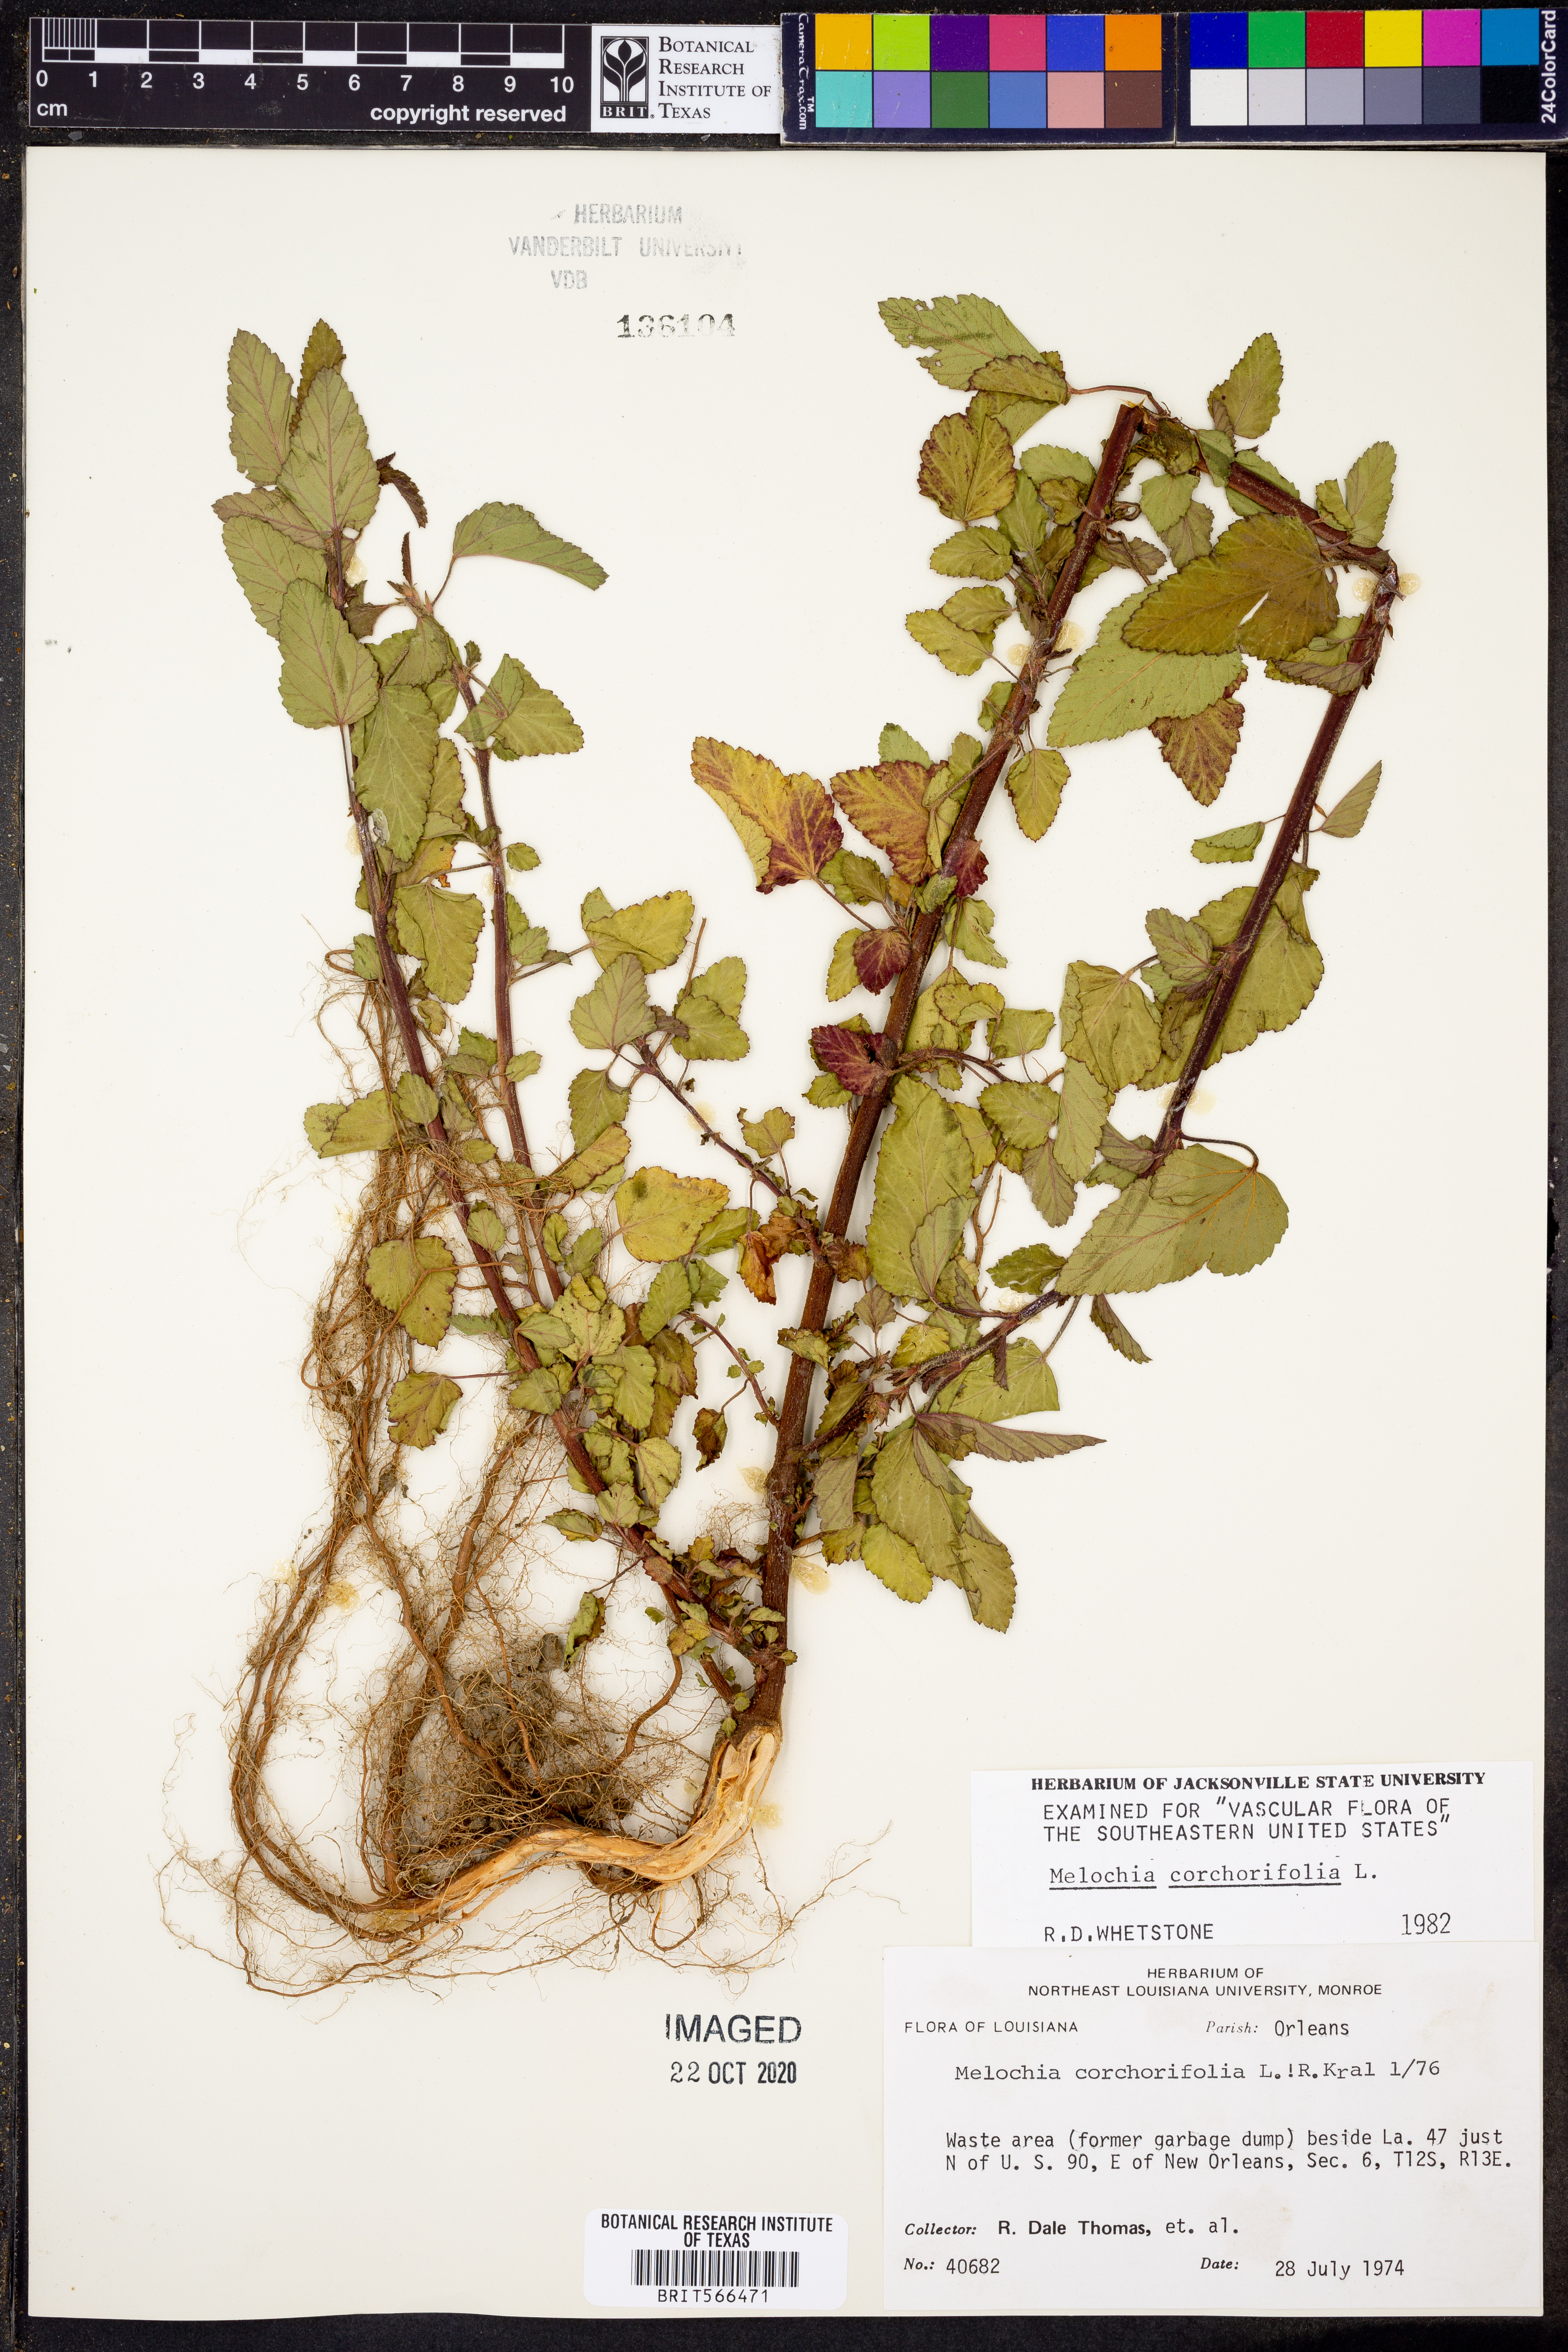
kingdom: Plantae
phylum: Tracheophyta
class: Magnoliopsida
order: Malvales
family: Malvaceae
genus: Melochia
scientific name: Melochia corchorifolia
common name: Chocolateweed
